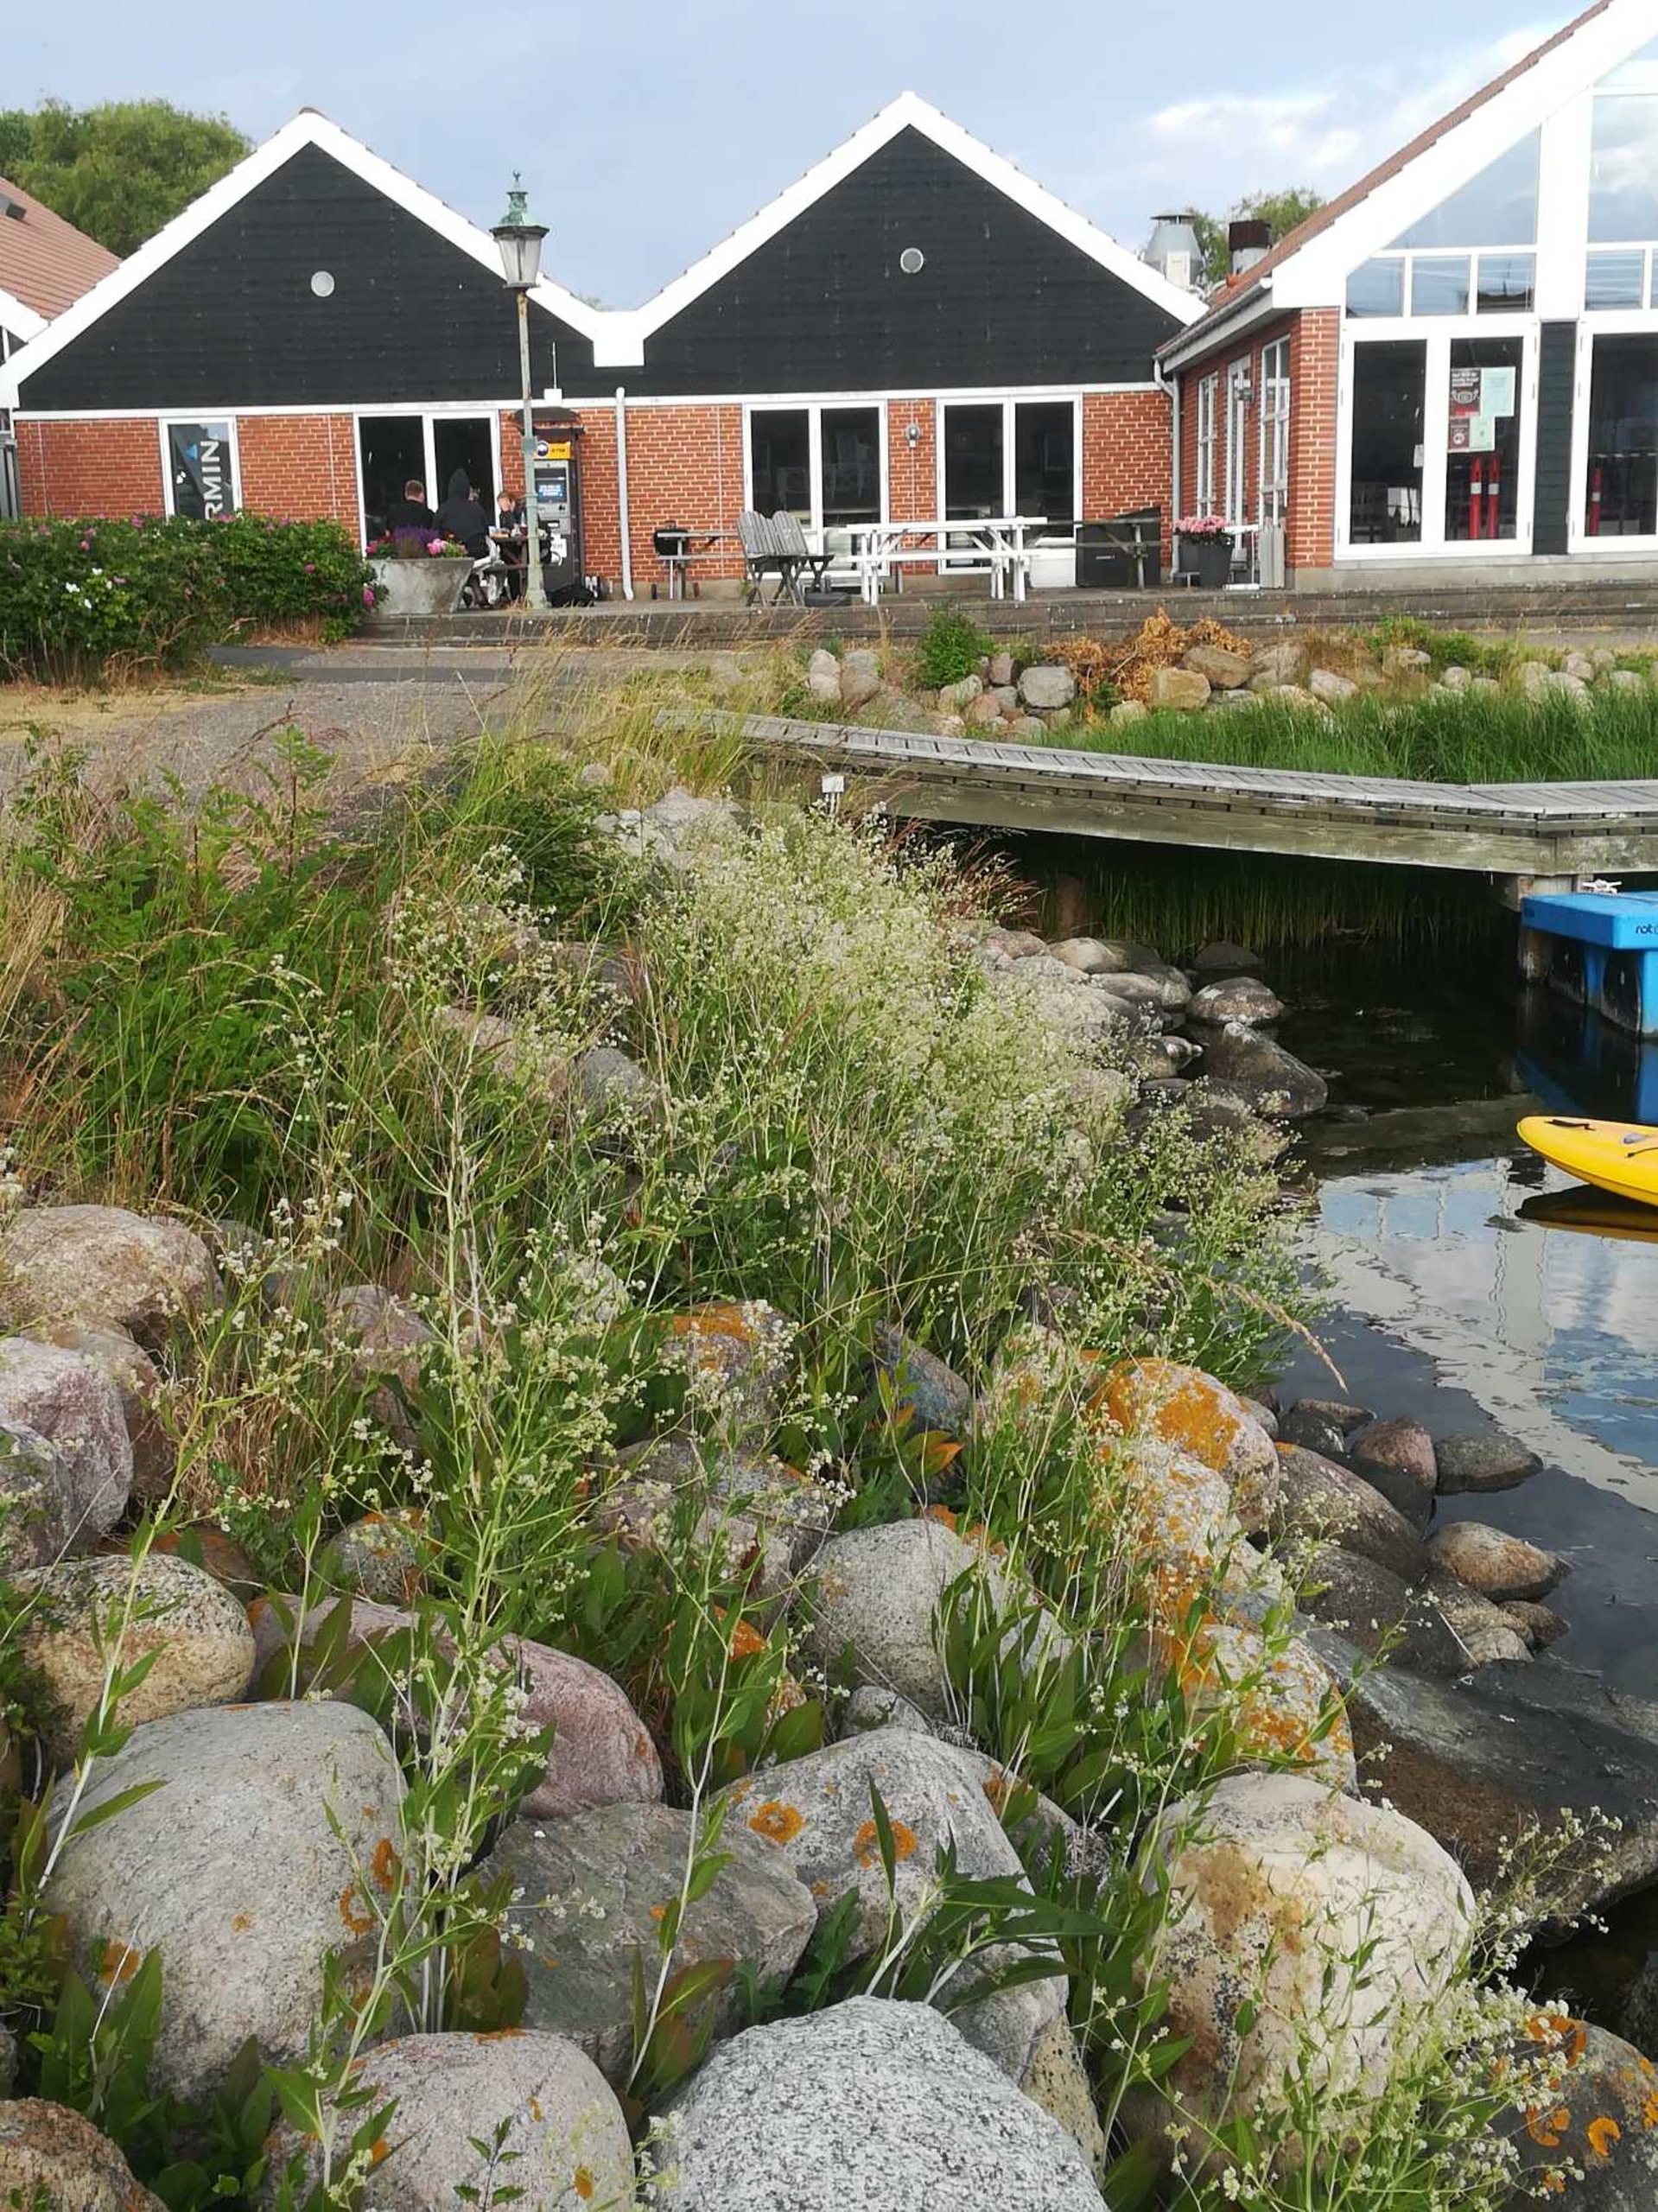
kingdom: Plantae
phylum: Tracheophyta
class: Magnoliopsida
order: Brassicales
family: Brassicaceae
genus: Lepidium
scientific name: Lepidium latifolium
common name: Strand-karse
